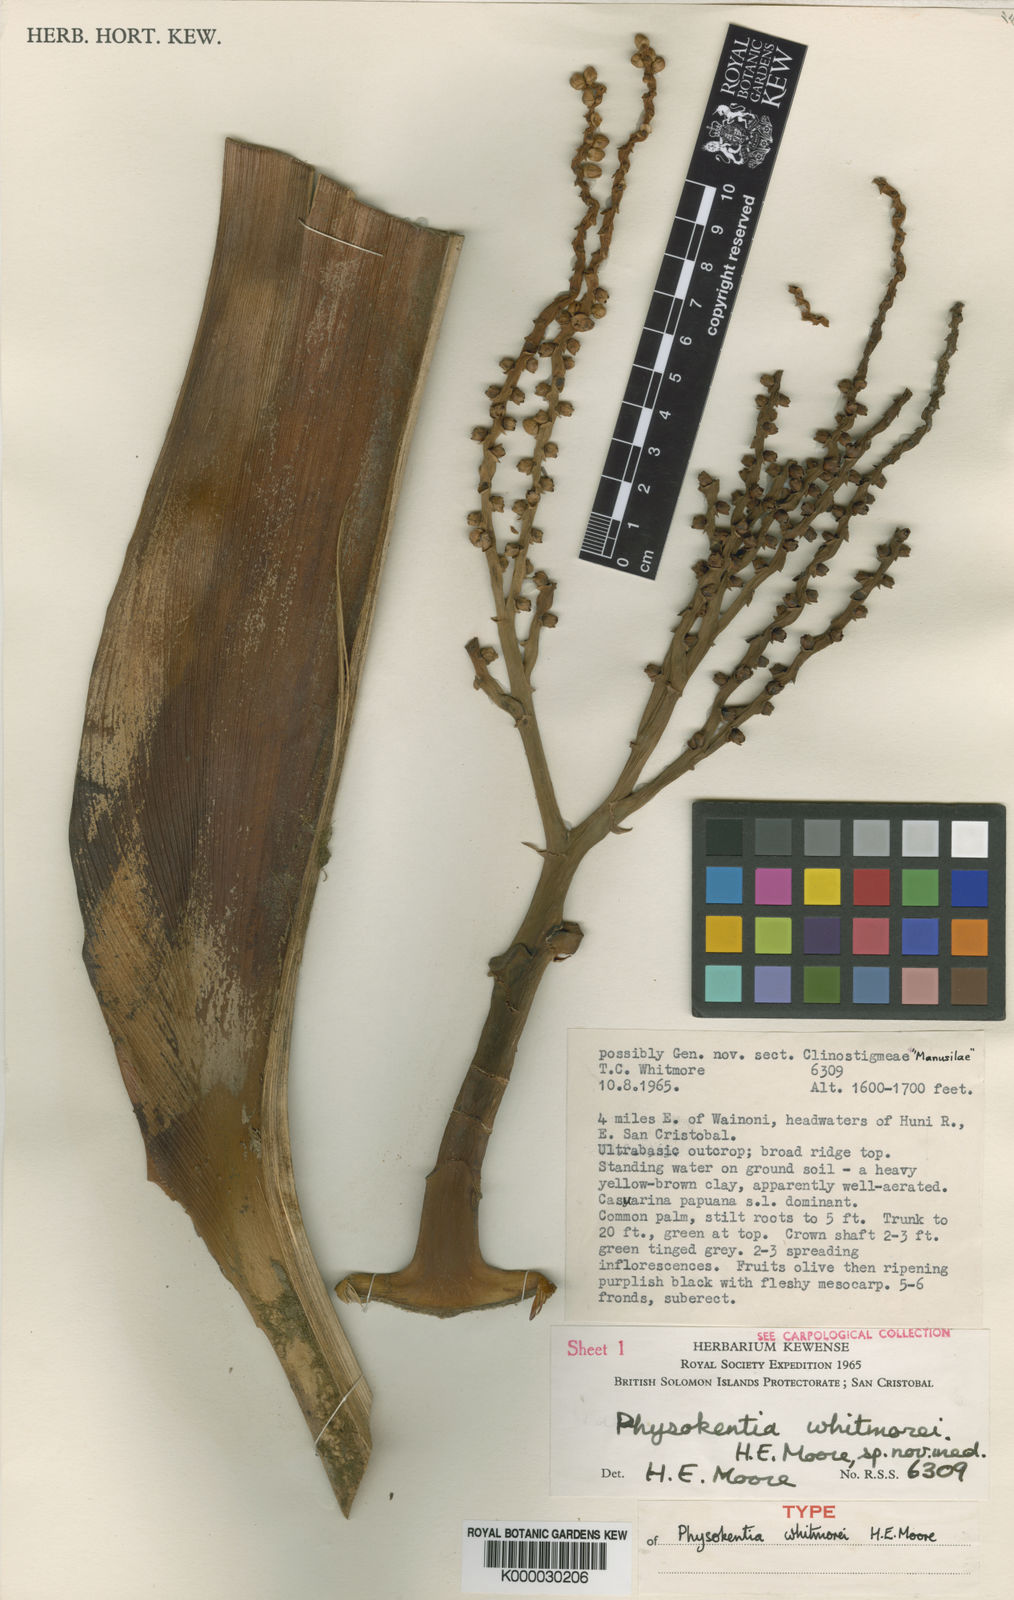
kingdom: Plantae
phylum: Tracheophyta
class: Liliopsida
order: Arecales
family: Arecaceae
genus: Physokentia
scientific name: Physokentia whitmorei
